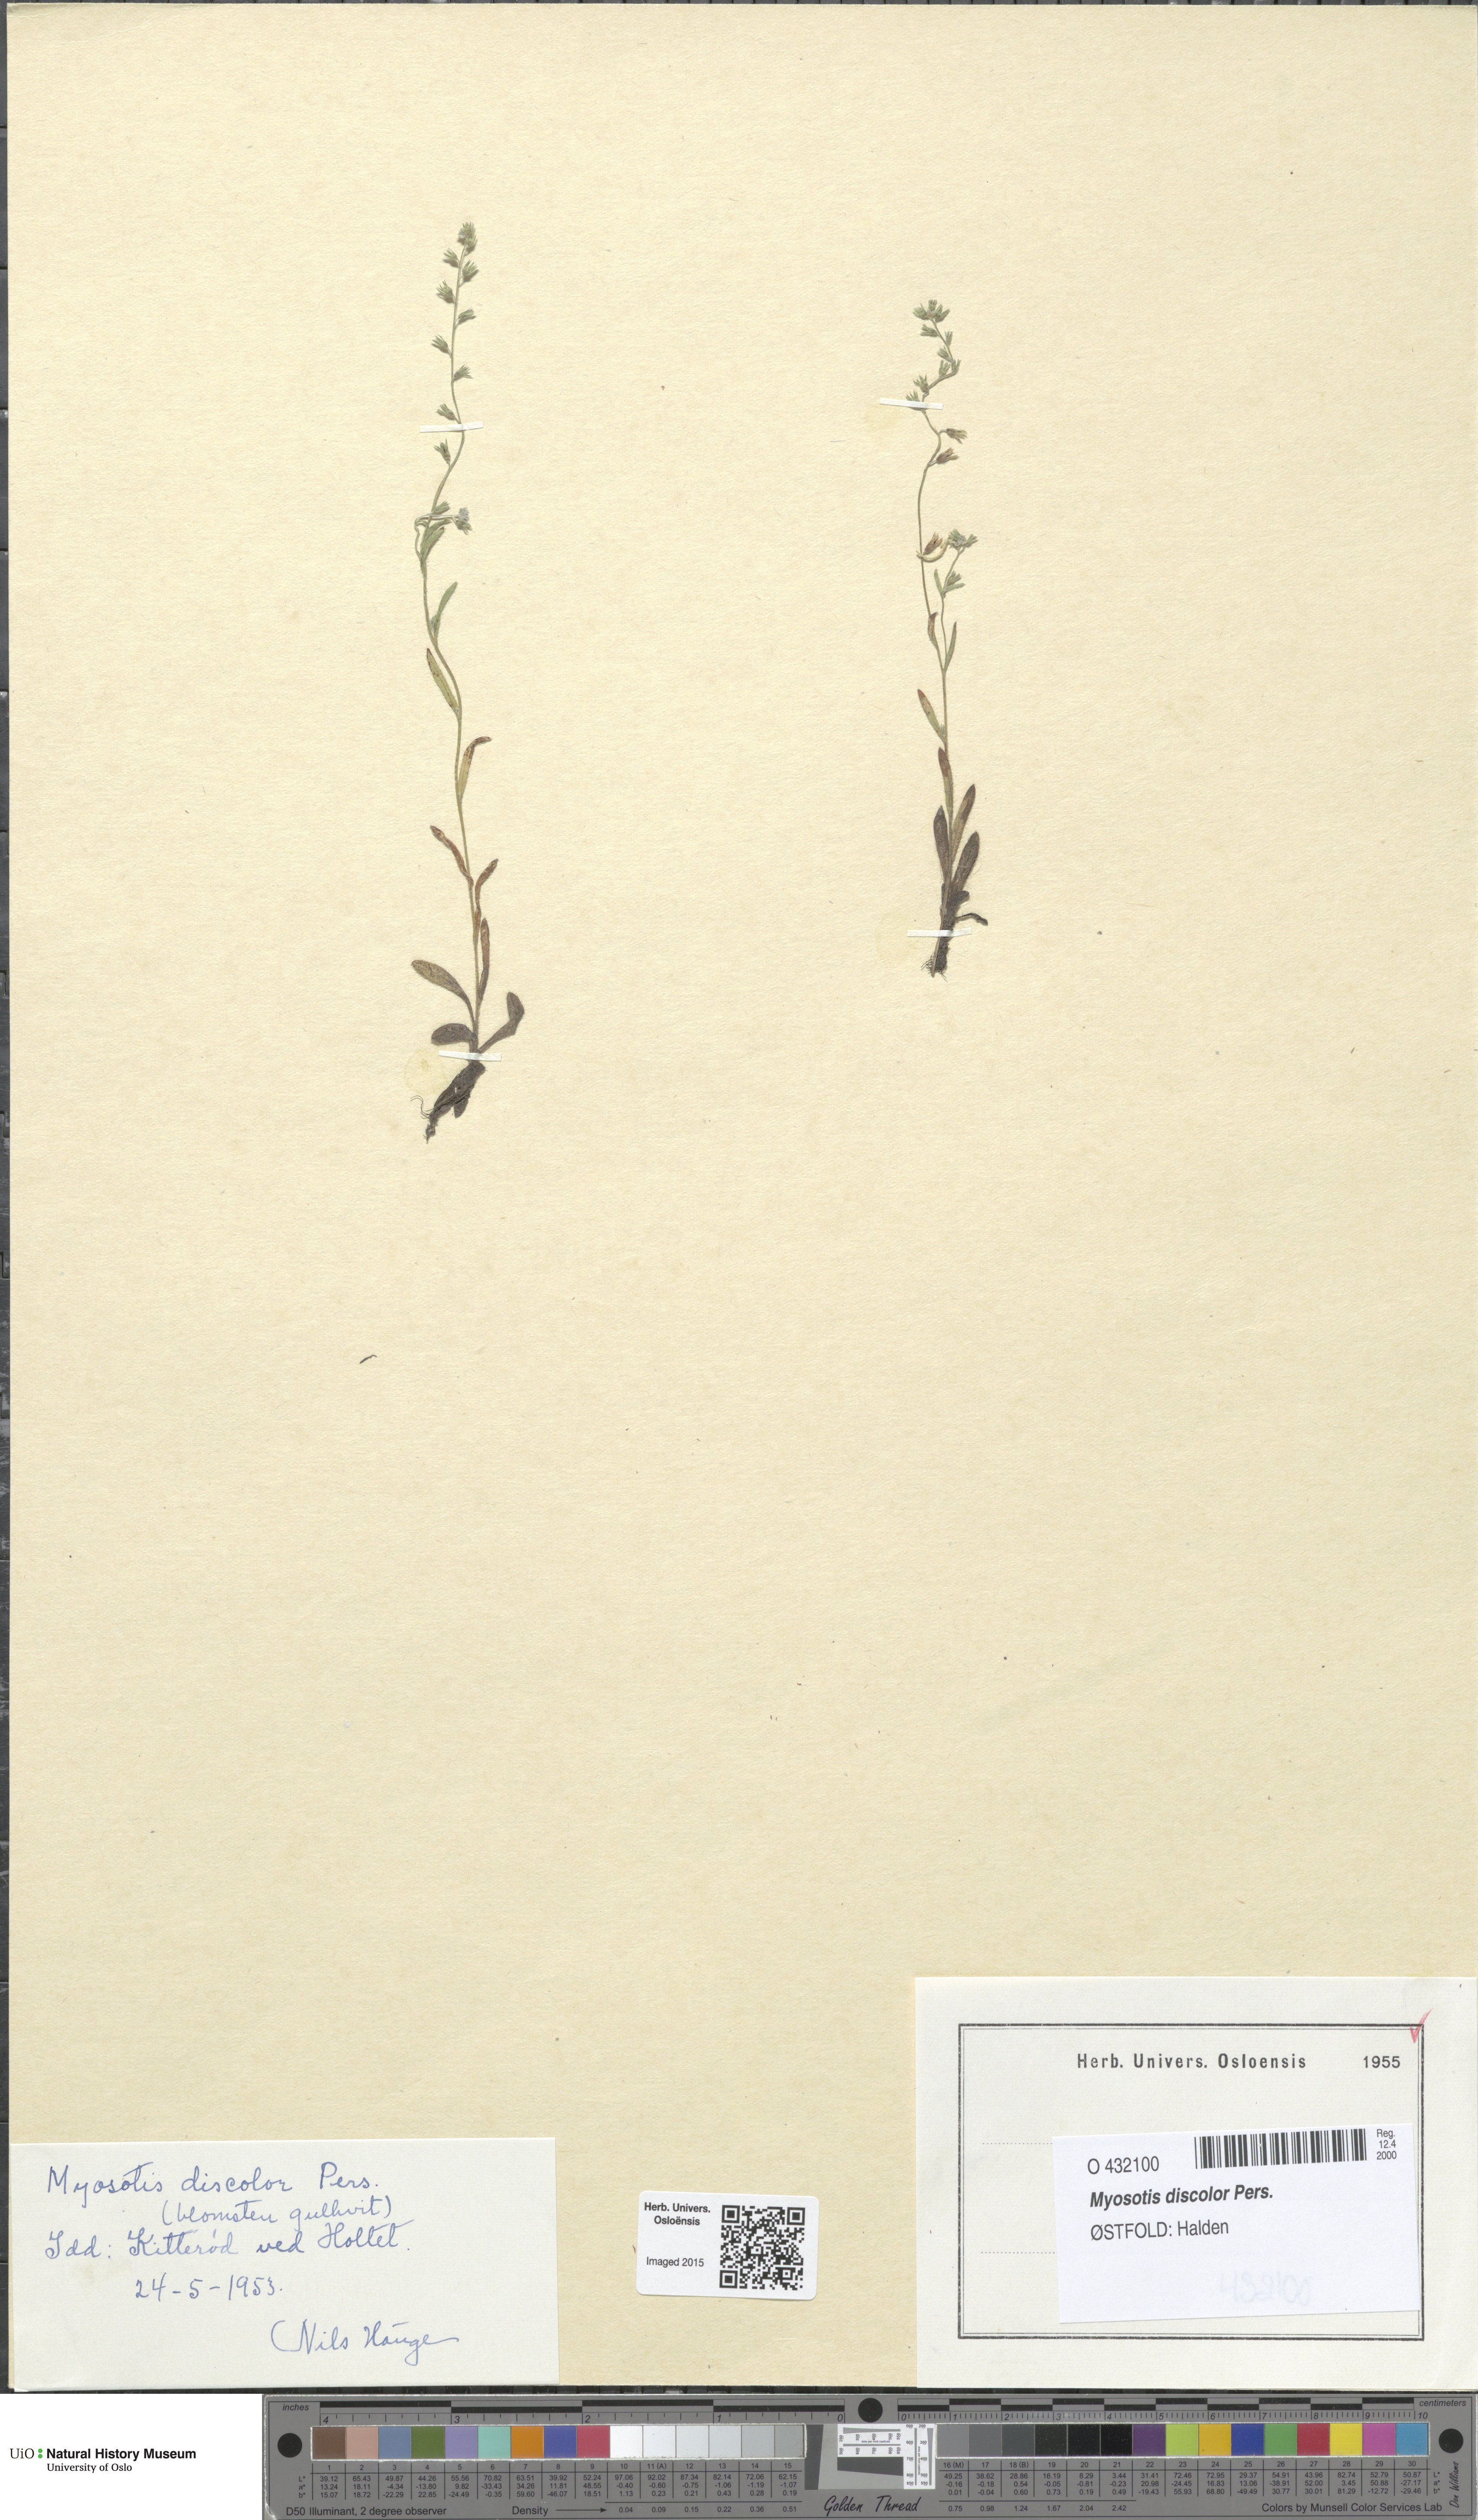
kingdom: Plantae
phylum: Tracheophyta
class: Magnoliopsida
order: Boraginales
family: Boraginaceae
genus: Myosotis
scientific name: Myosotis discolor
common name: Changing forget-me-not
